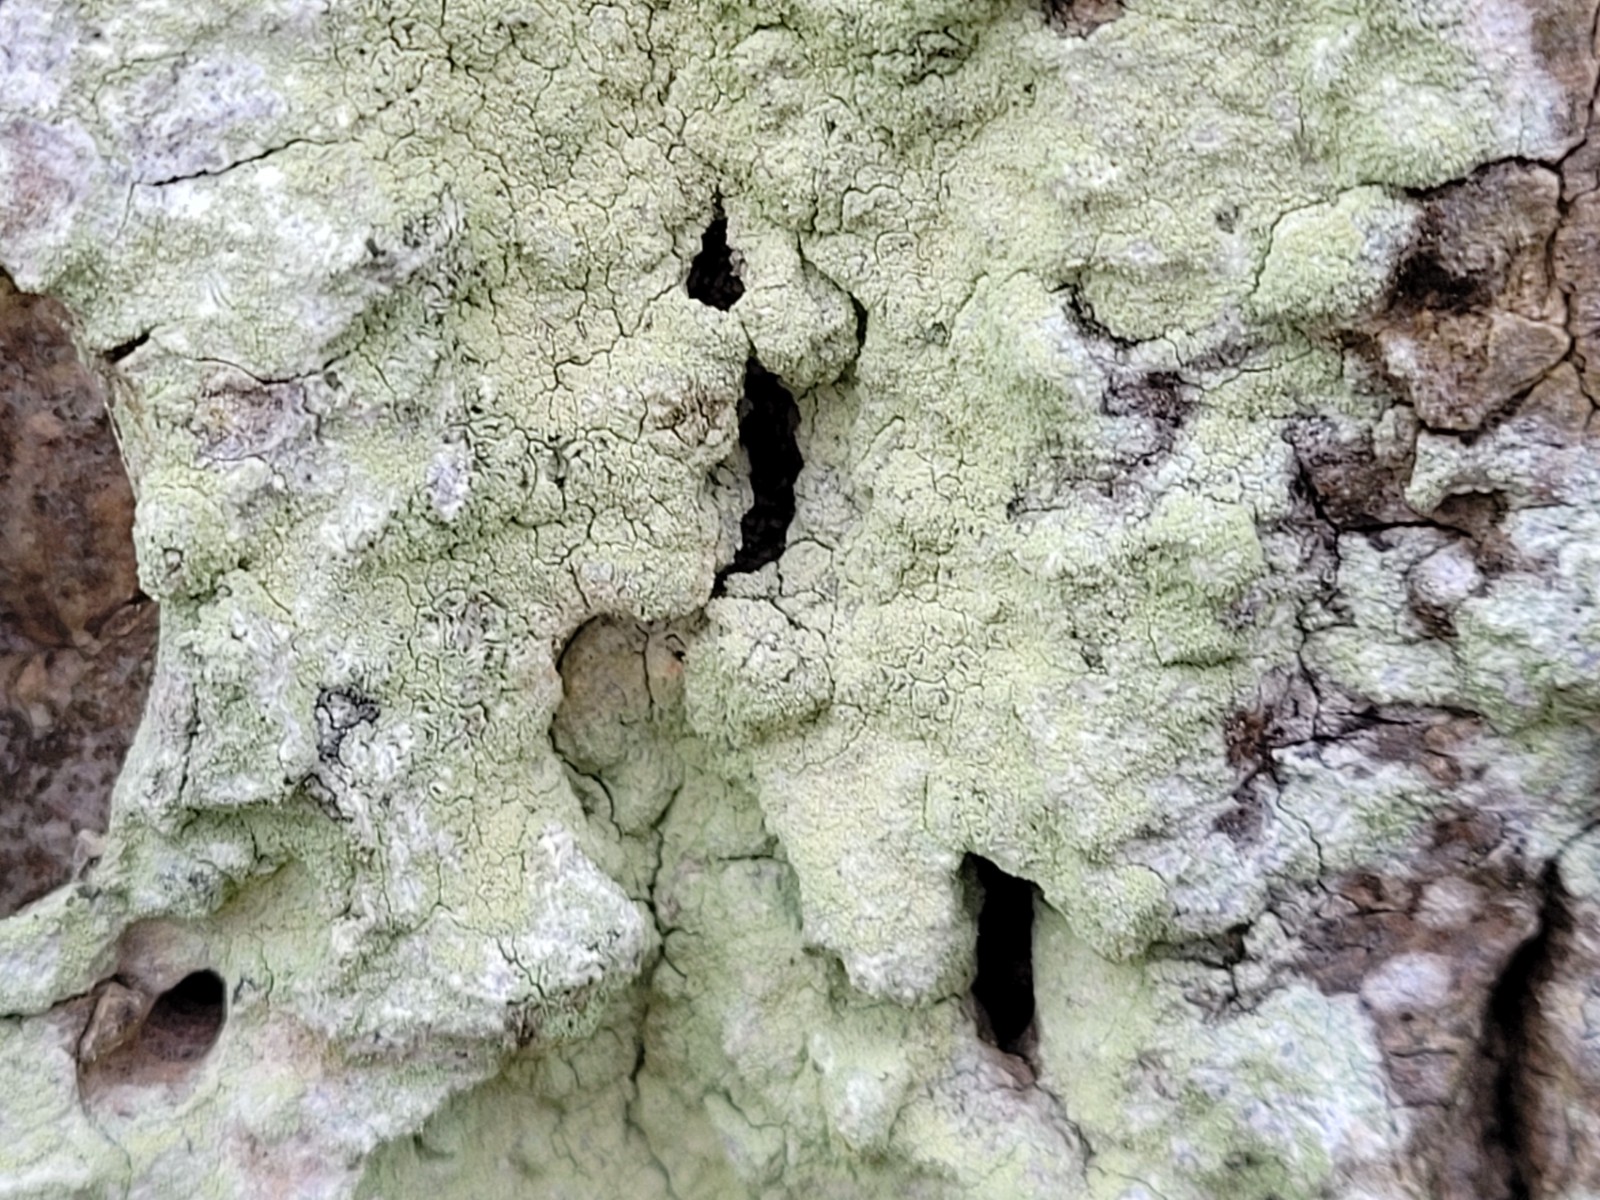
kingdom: Fungi
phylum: Ascomycota
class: Lecanoromycetes
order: Lecanorales
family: Lecanoraceae
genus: Lecanora
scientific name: Lecanora expallens
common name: bleggul kantskivelav
